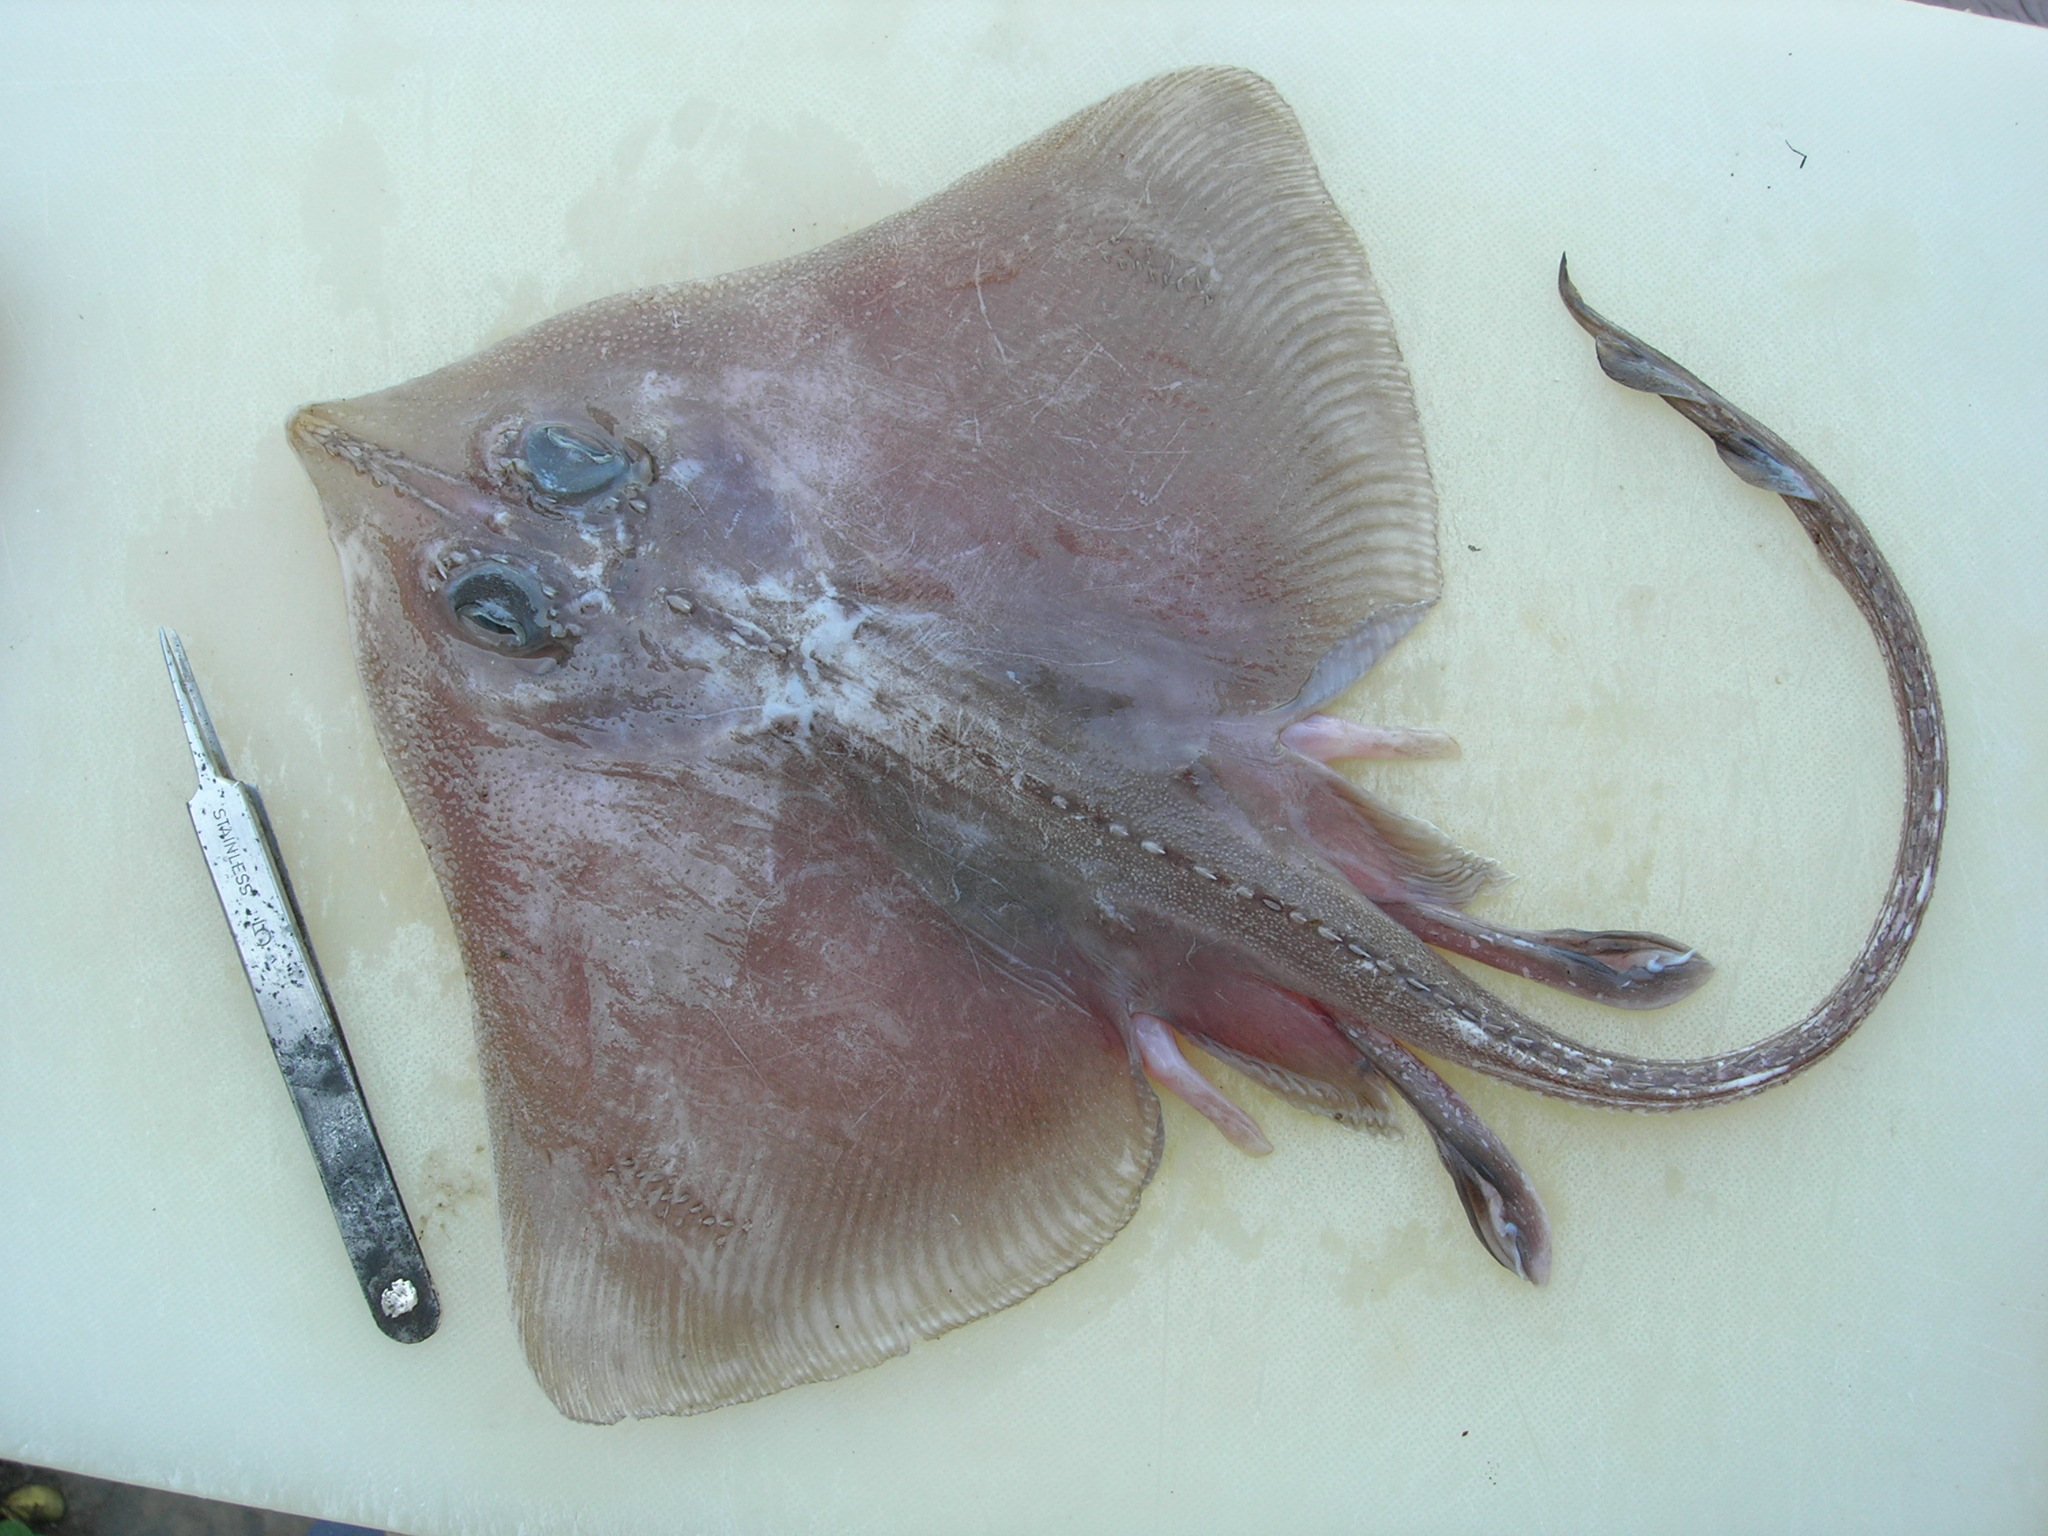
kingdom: Animalia
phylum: Chordata
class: Elasmobranchii
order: Rajiformes
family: Rajidae
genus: Cruriraja
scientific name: Cruriraja parcomaculata
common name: Triangular legskate
